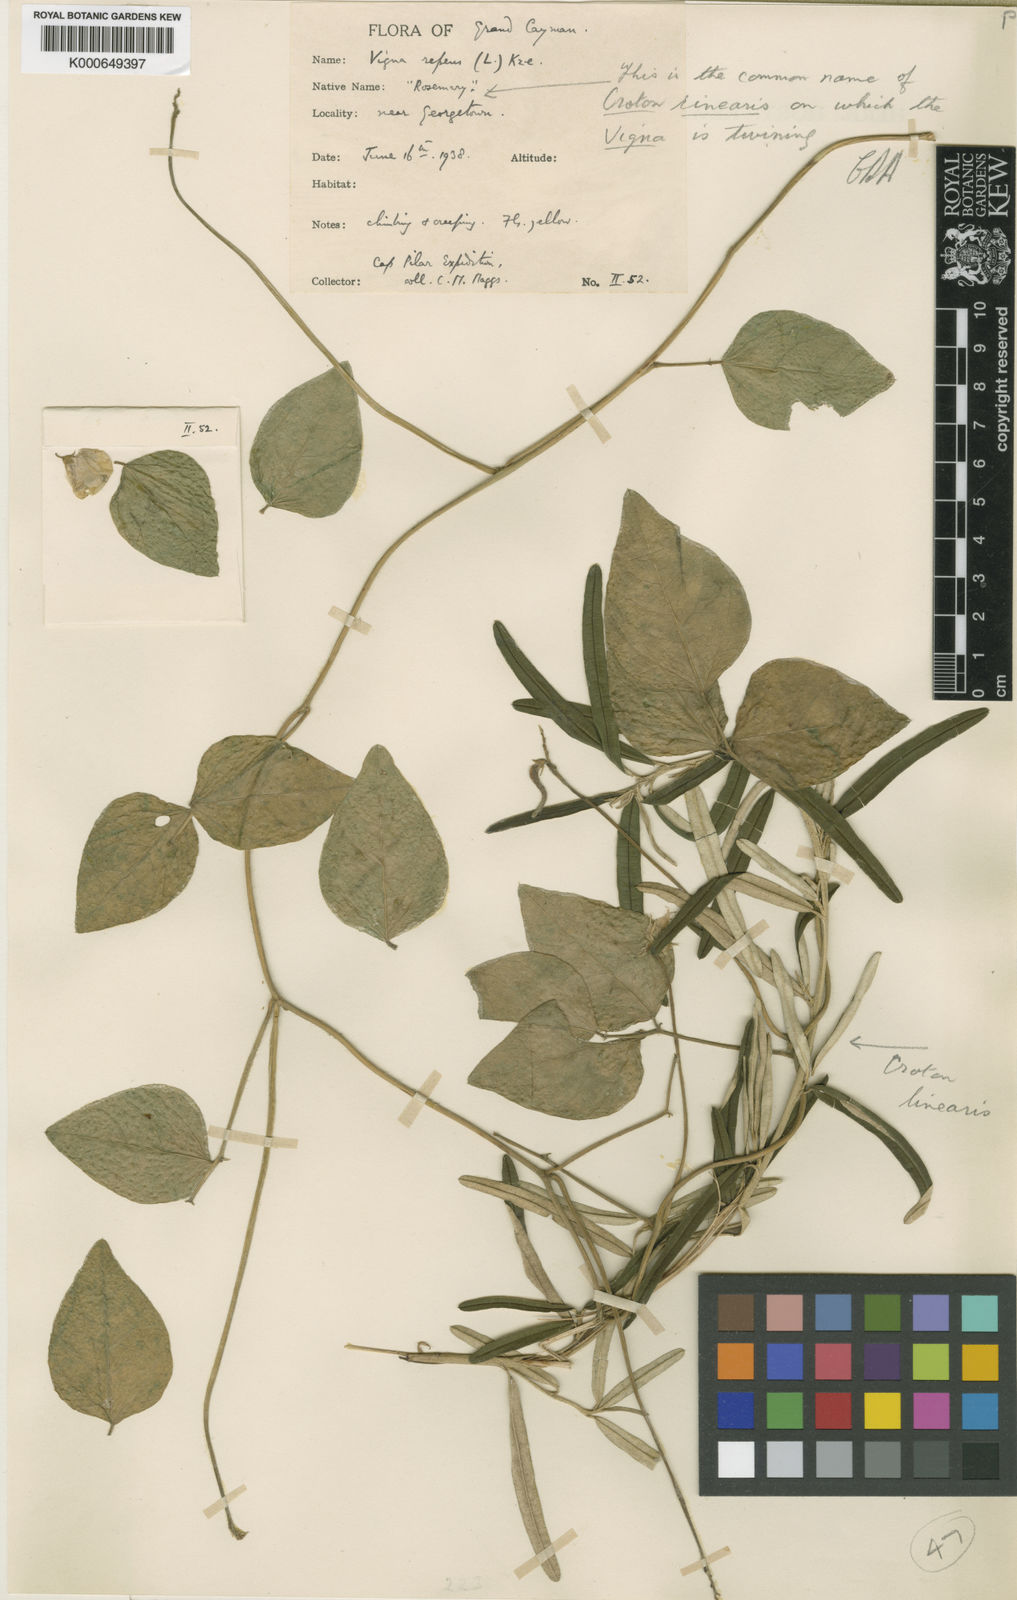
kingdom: Plantae
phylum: Tracheophyta
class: Magnoliopsida
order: Fabales
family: Fabaceae
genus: Vigna
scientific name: Vigna luteola
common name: Hairypod cowpea
